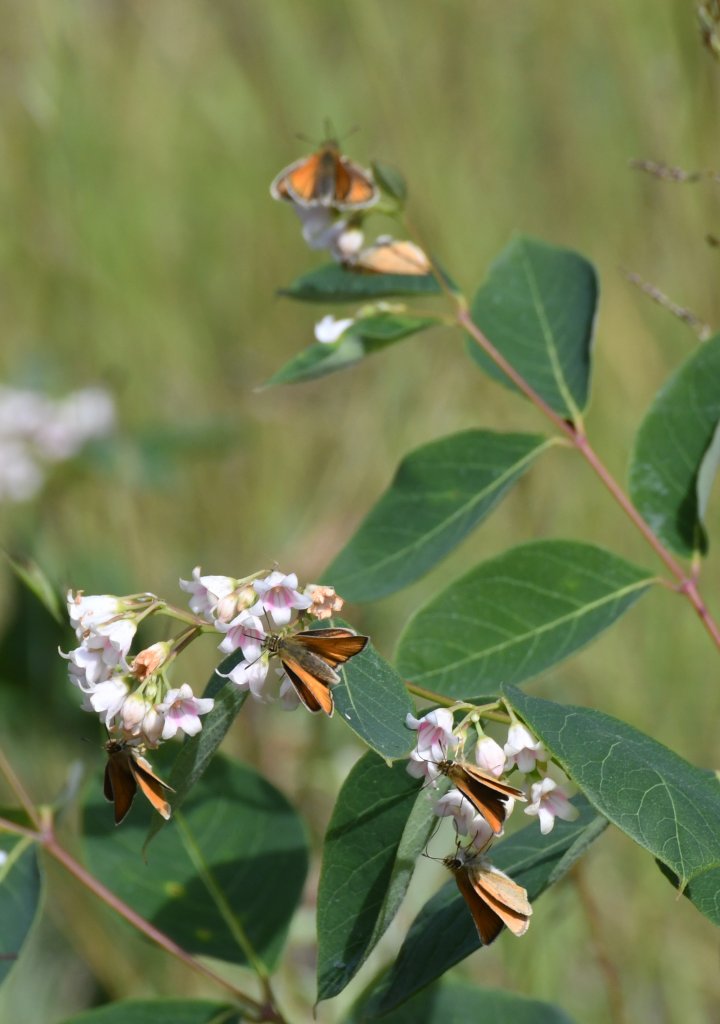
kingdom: Animalia
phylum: Arthropoda
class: Insecta
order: Lepidoptera
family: Hesperiidae
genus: Thymelicus
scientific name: Thymelicus lineola
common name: European Skipper
